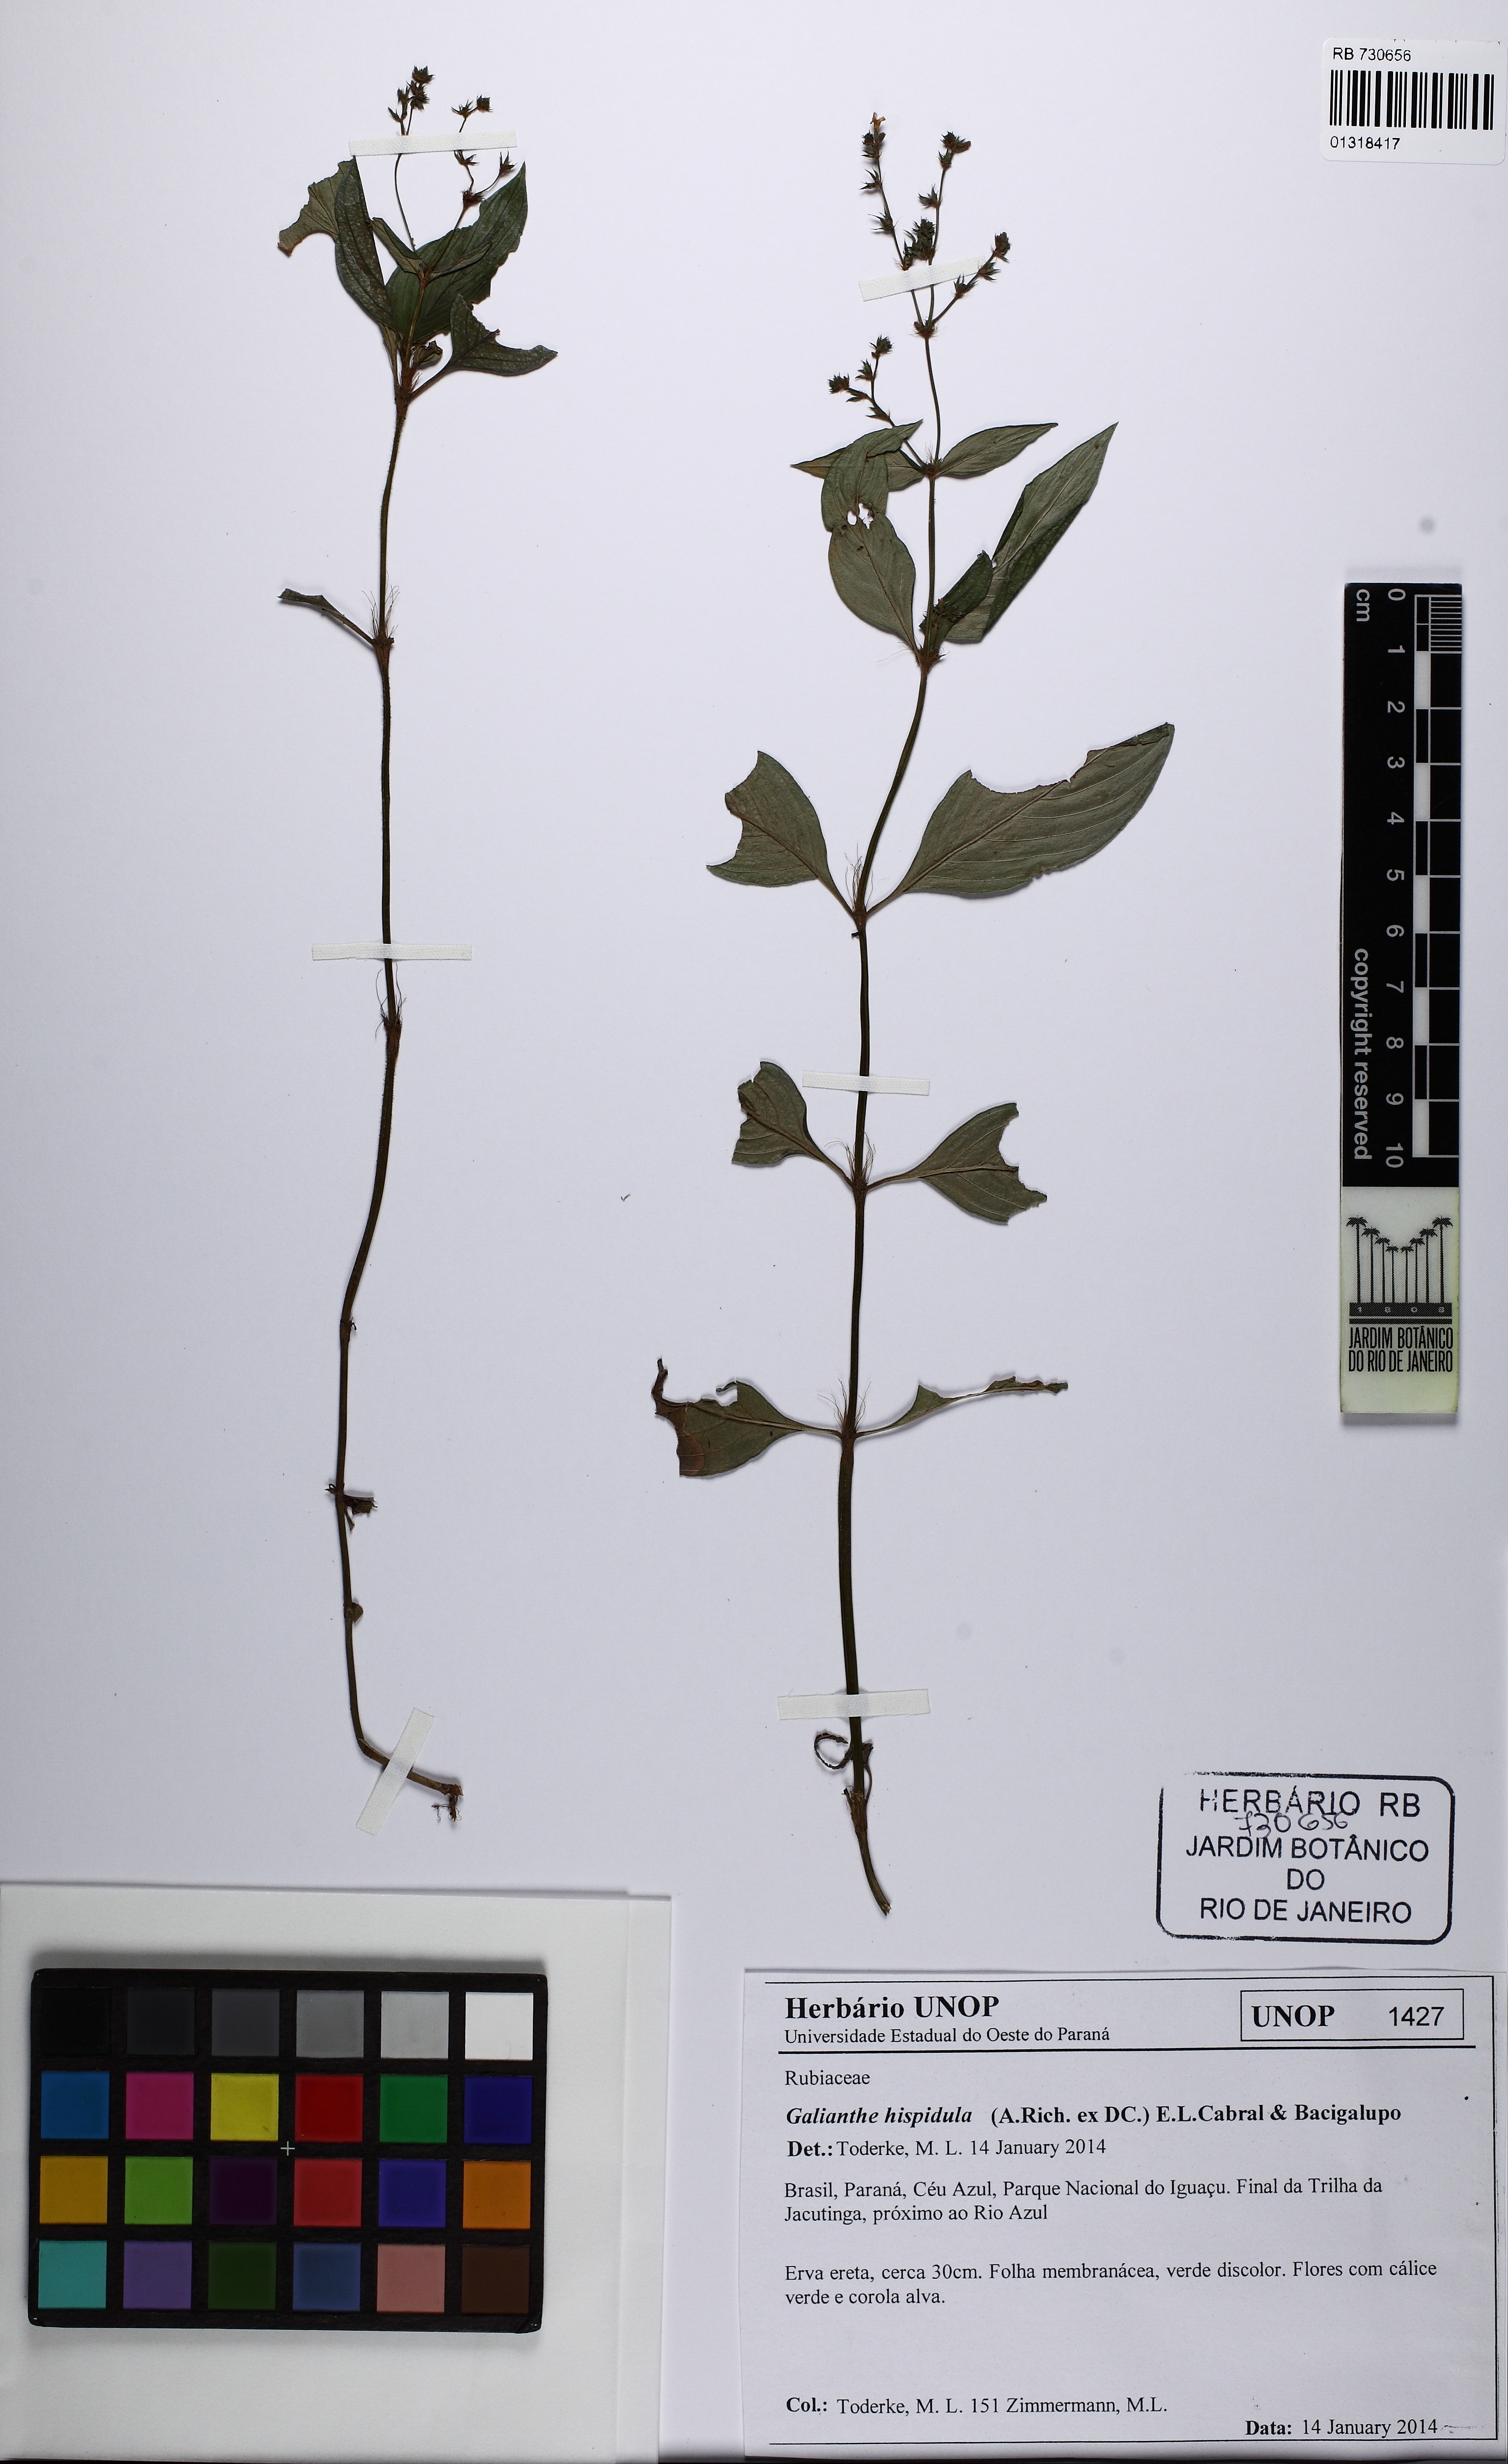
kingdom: Plantae
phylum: Tracheophyta
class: Magnoliopsida
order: Gentianales
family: Rubiaceae
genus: Galianthe
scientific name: Galianthe hispidula
